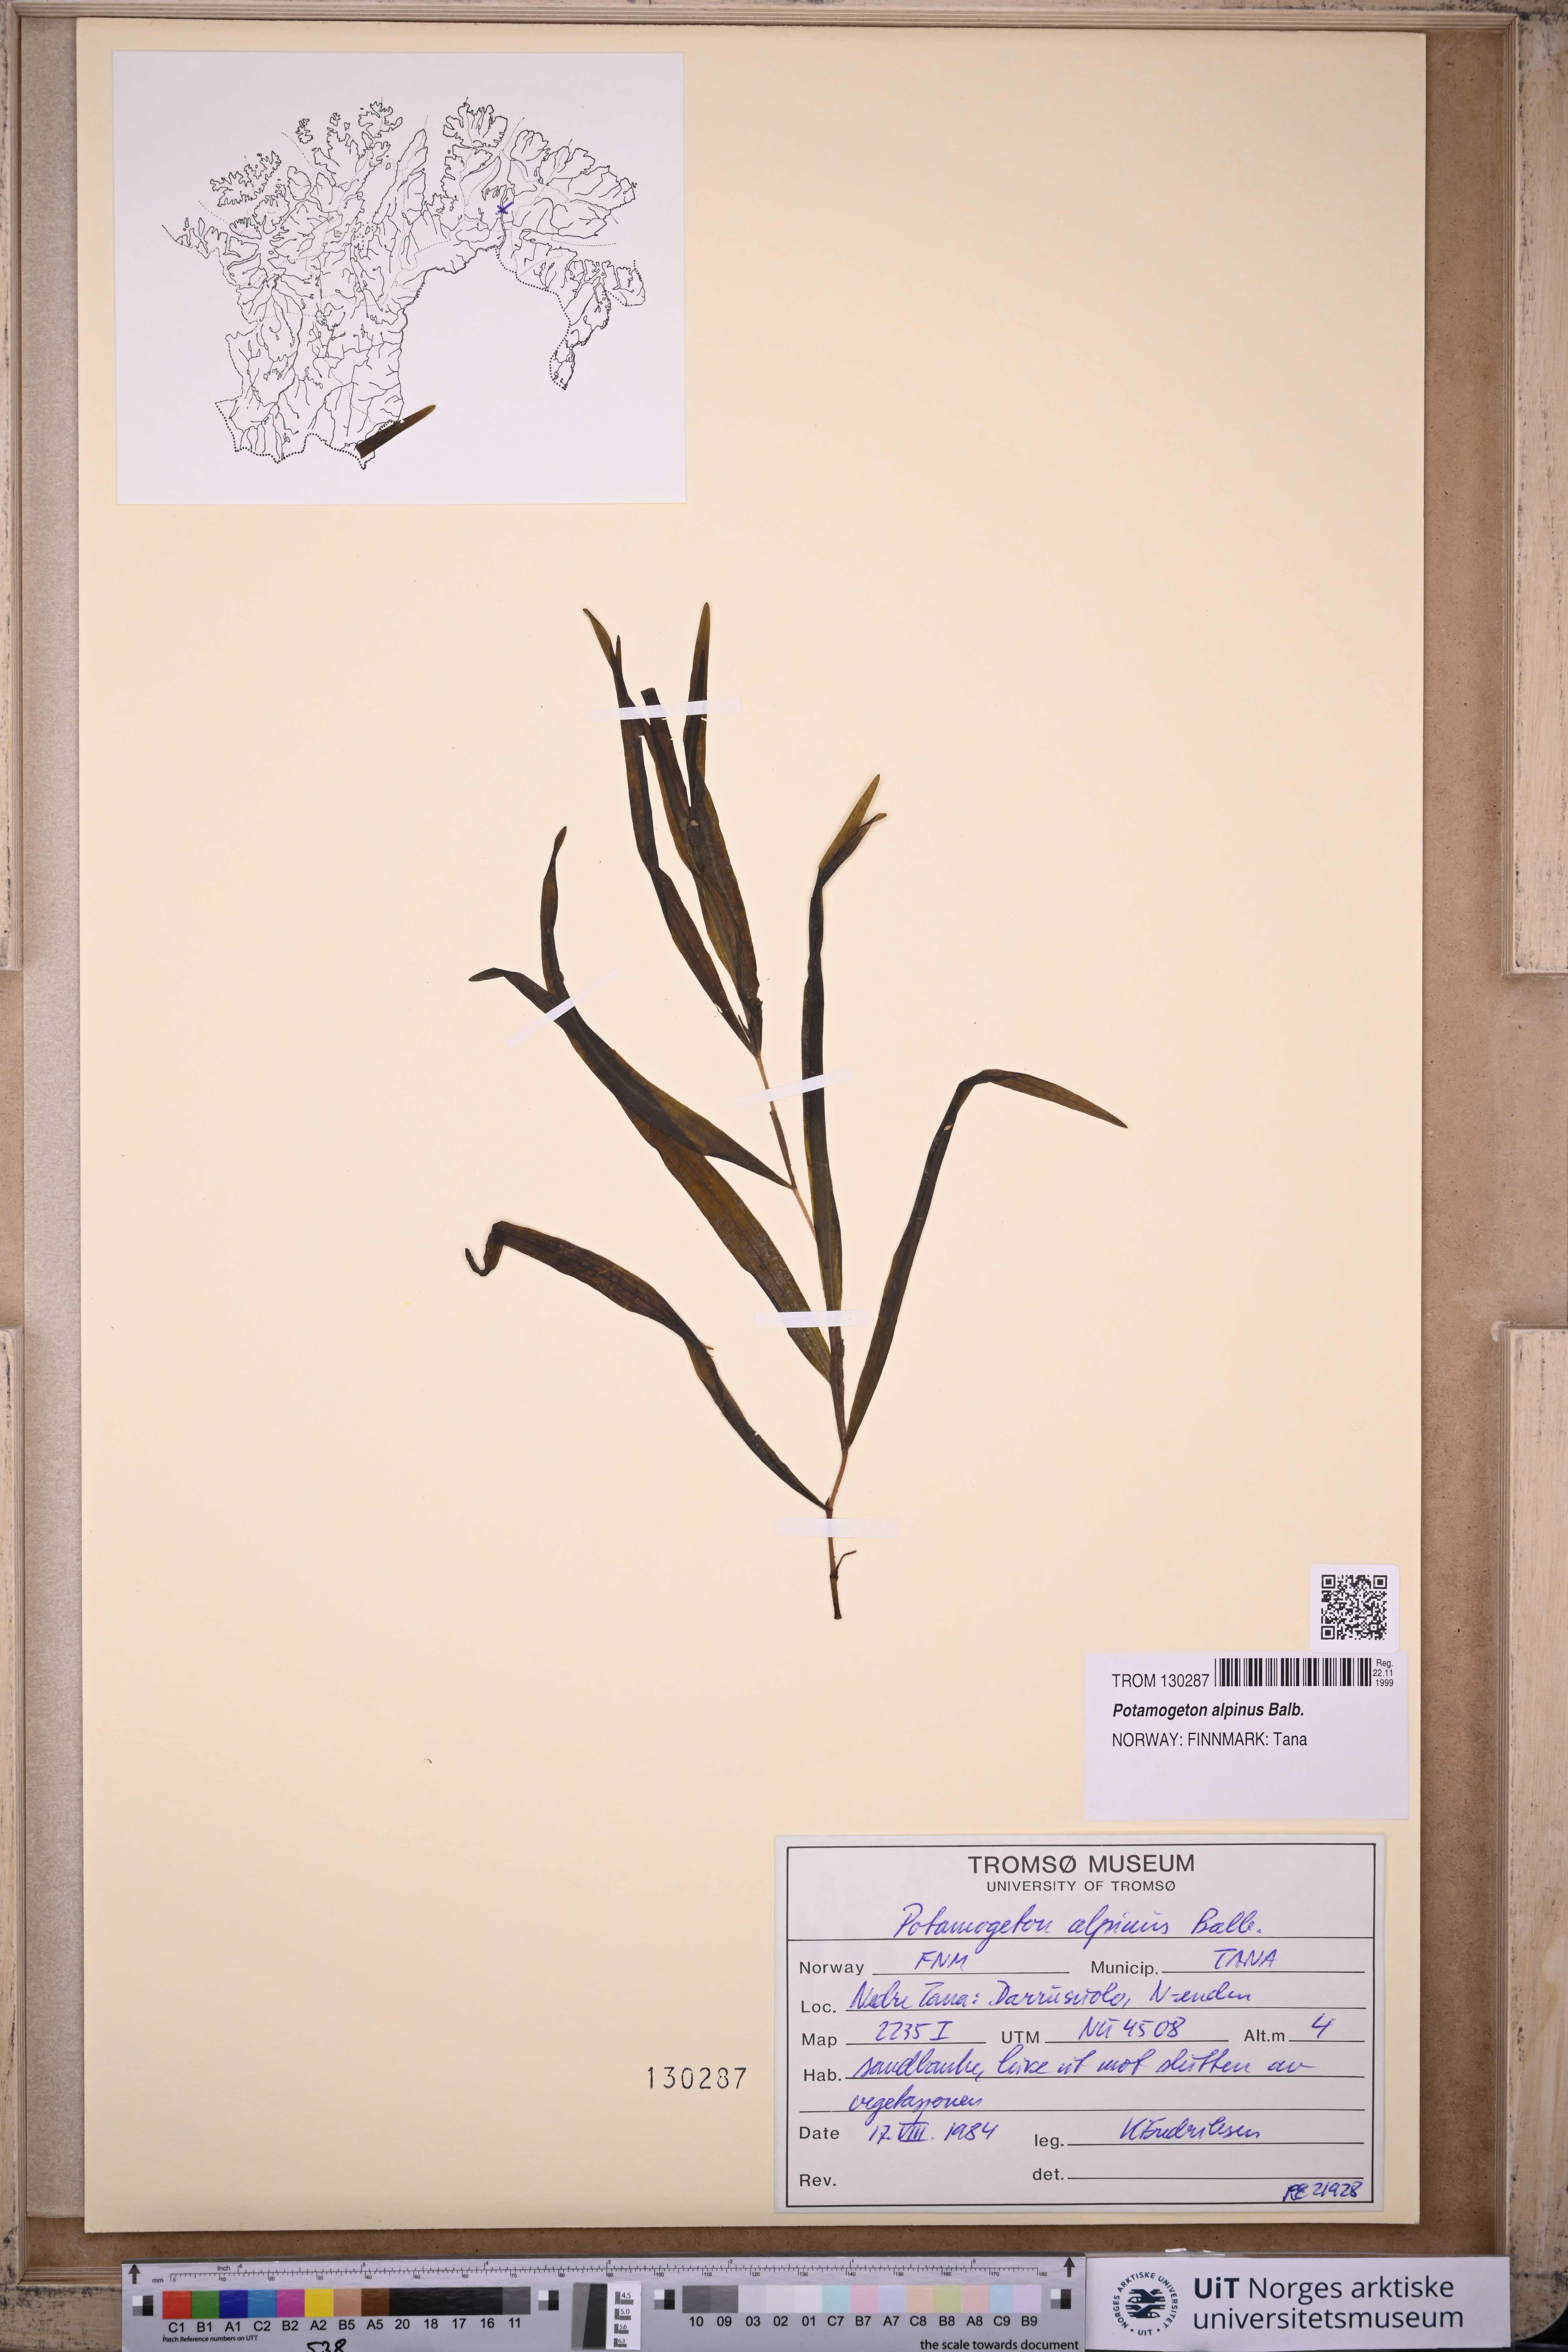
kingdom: Plantae
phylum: Tracheophyta
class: Liliopsida
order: Alismatales
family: Potamogetonaceae
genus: Potamogeton
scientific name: Potamogeton alpinus
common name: Red pondweed
